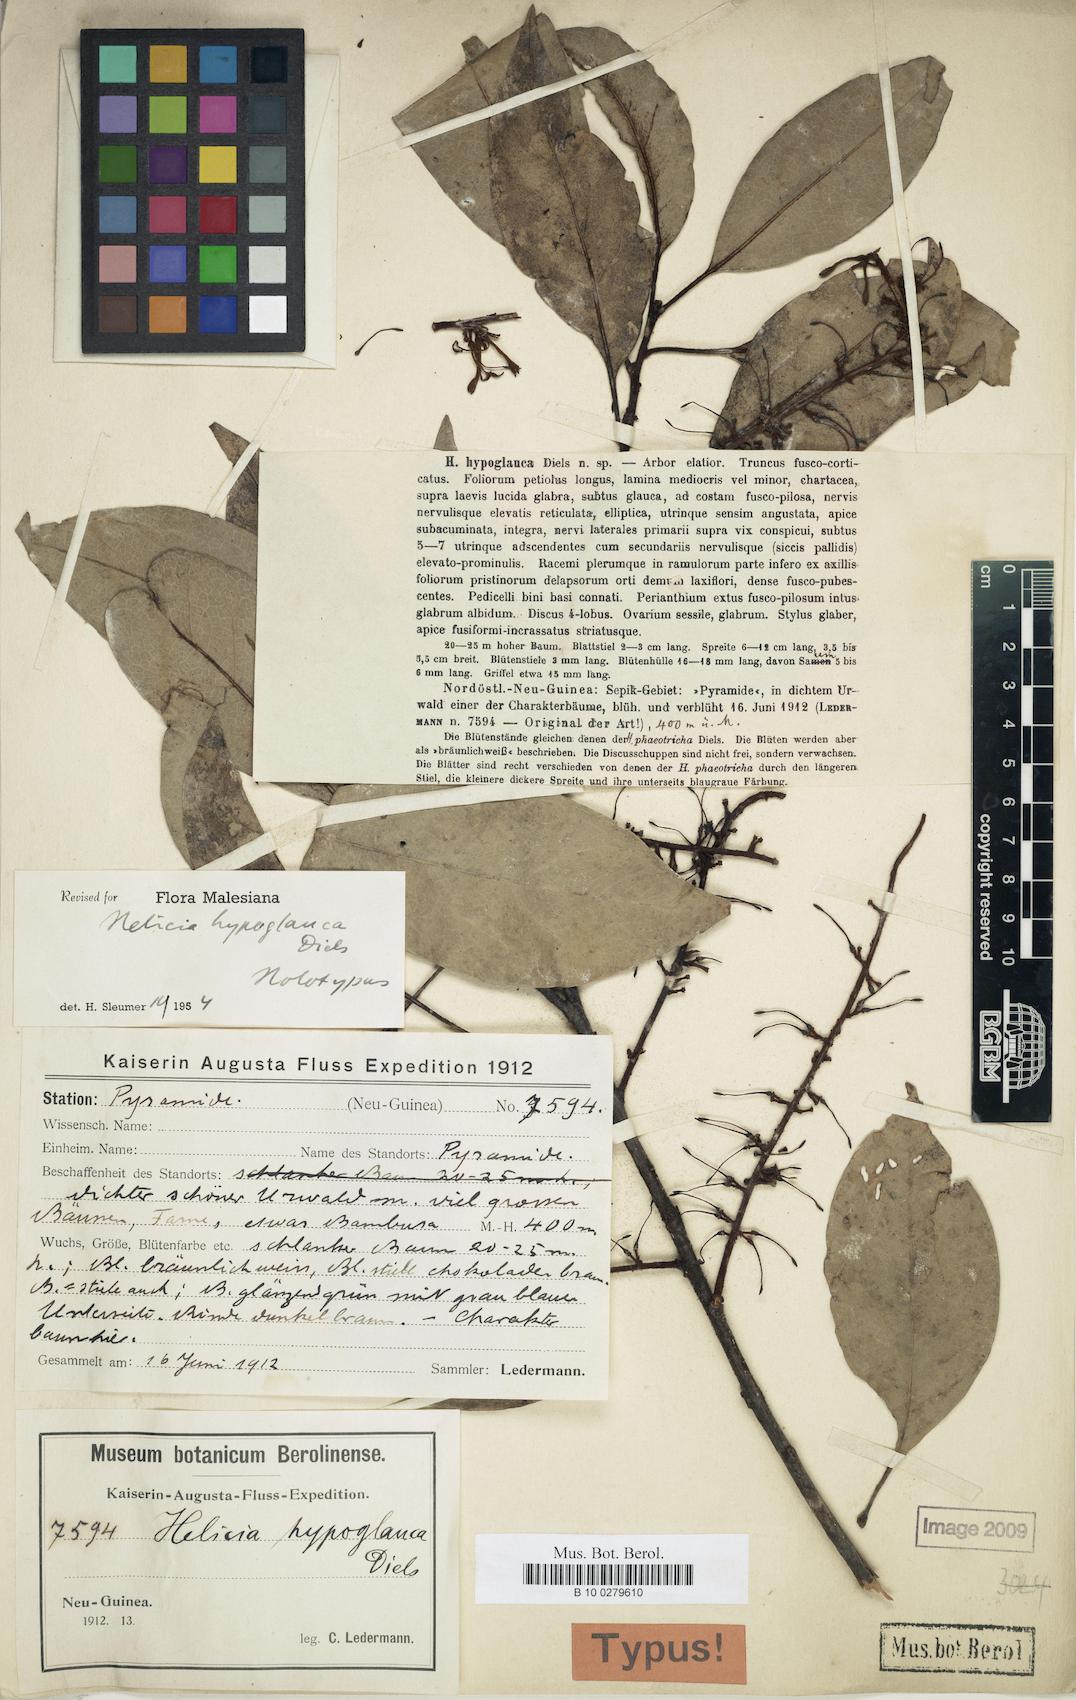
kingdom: Plantae
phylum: Tracheophyta
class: Magnoliopsida
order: Proteales
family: Proteaceae
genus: Helicia
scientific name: Helicia hypoglauca
